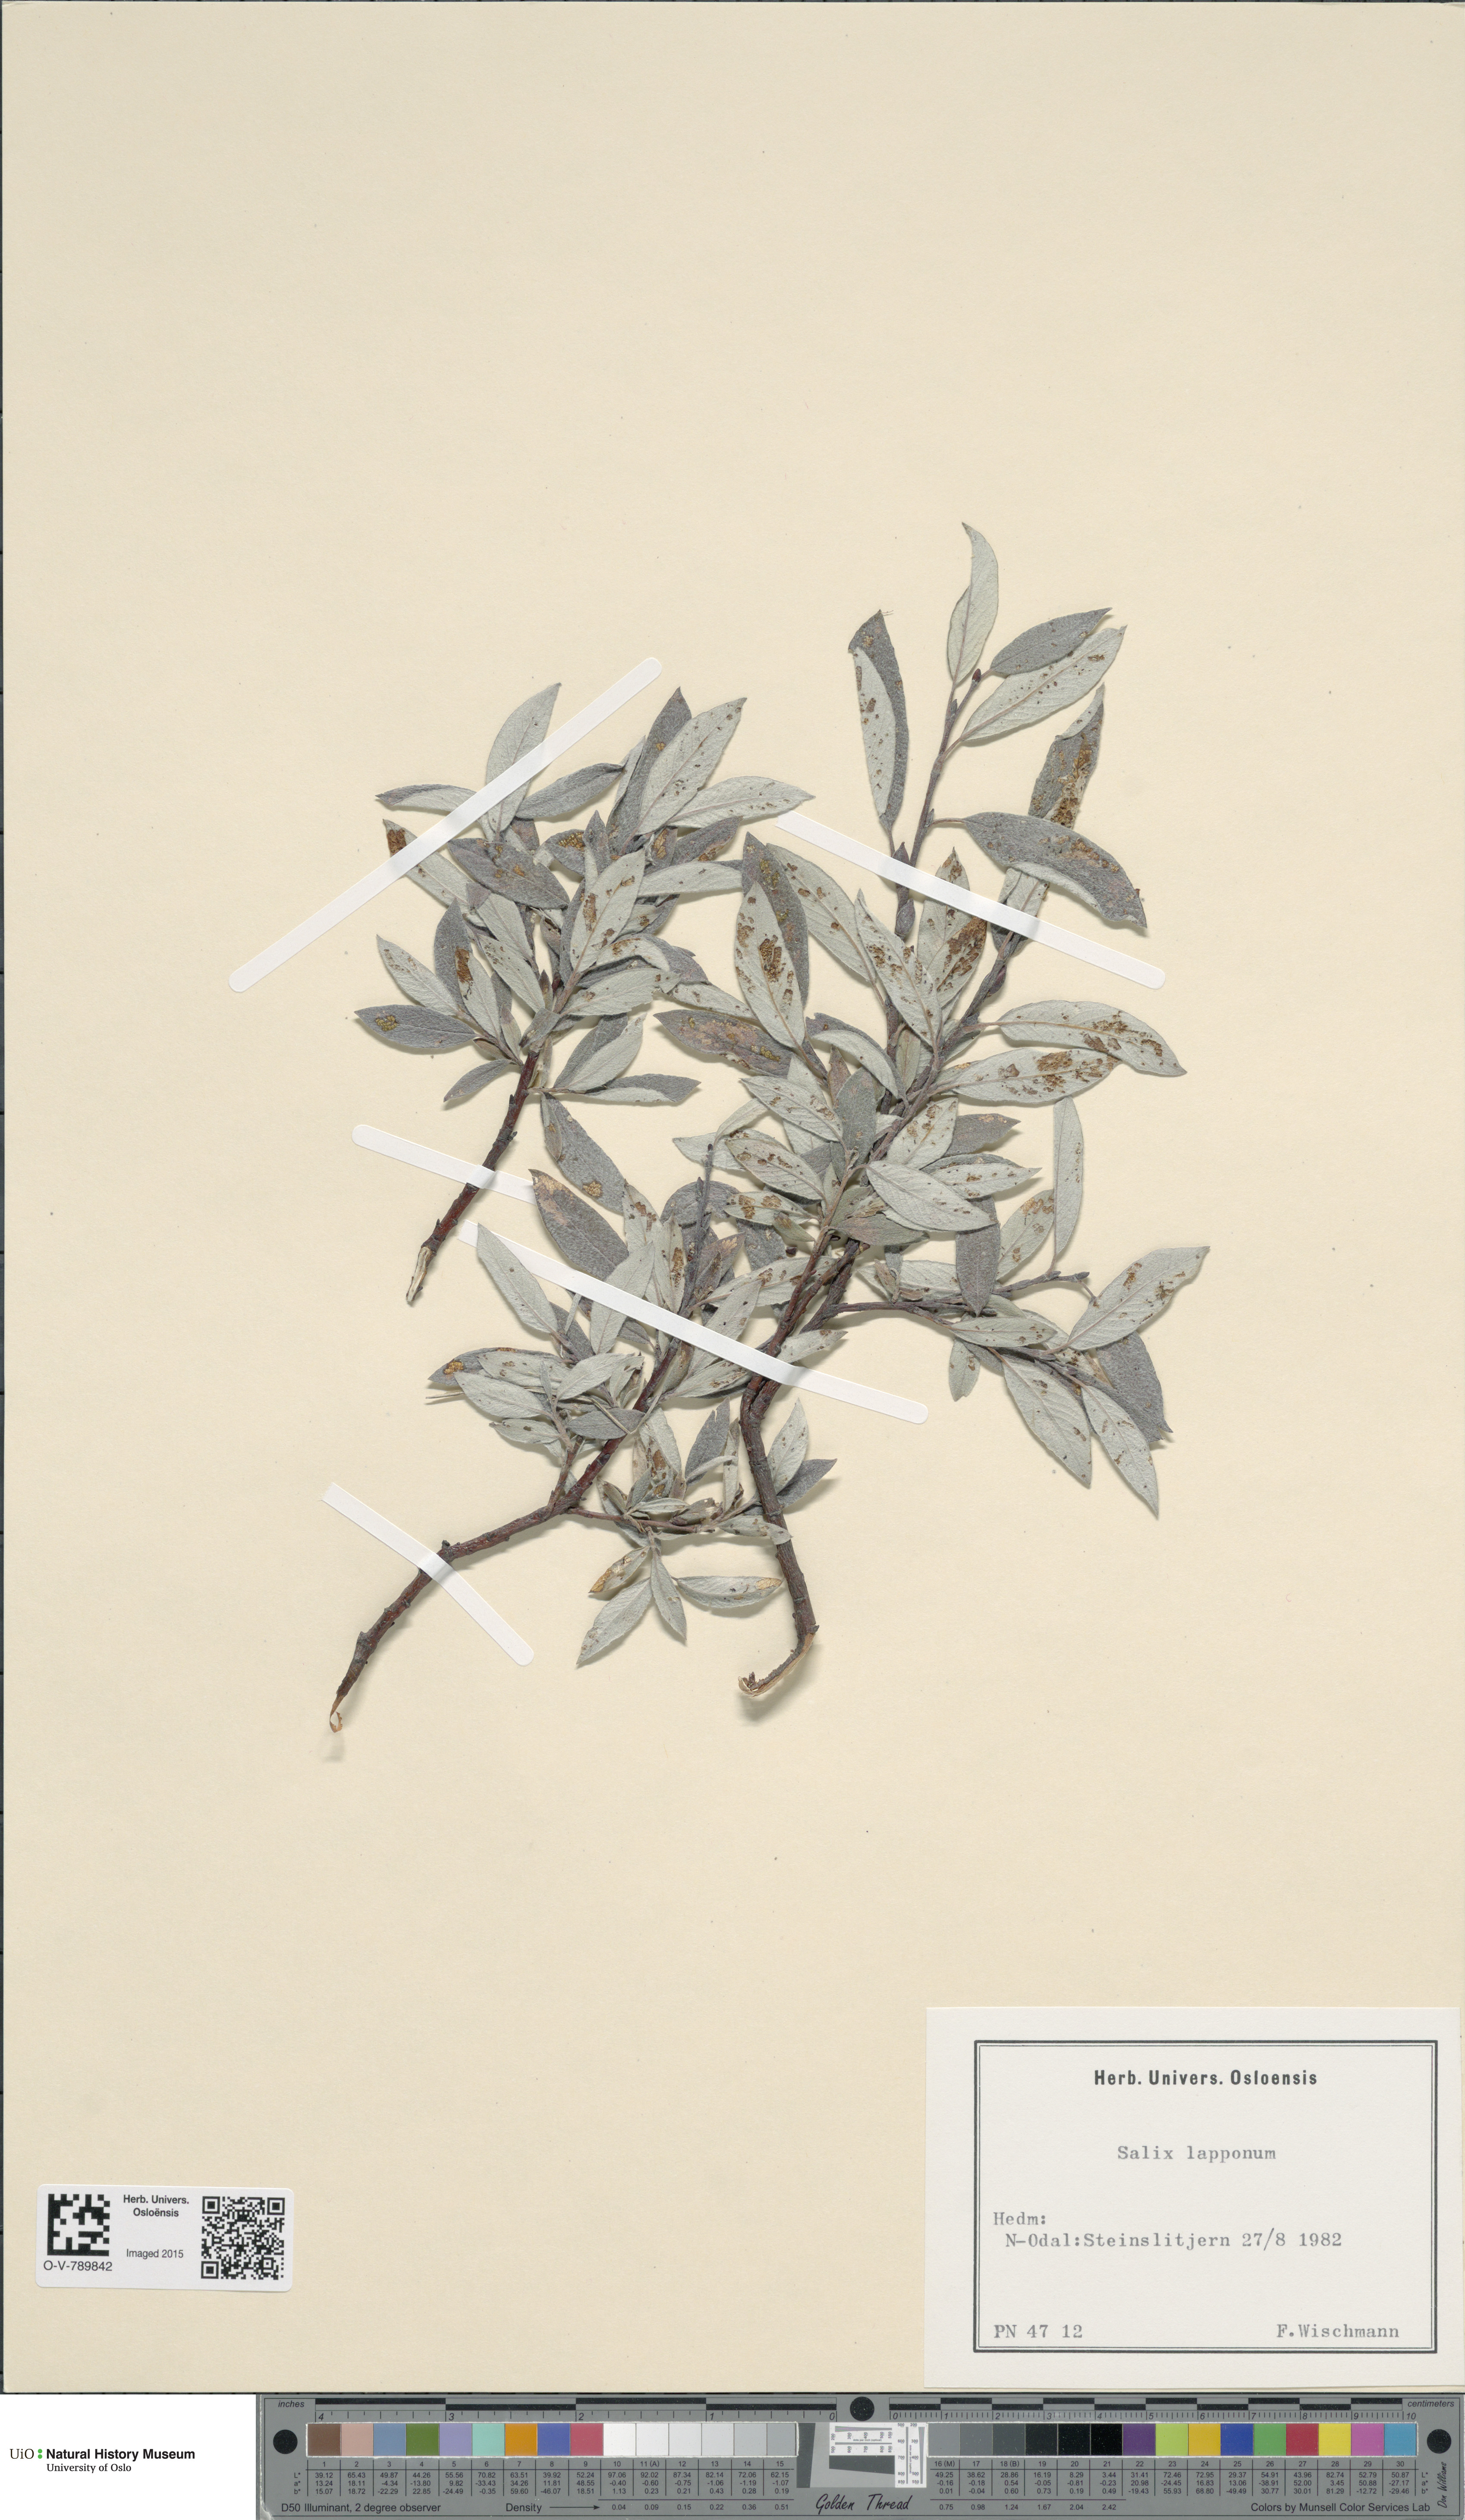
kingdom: Plantae
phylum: Tracheophyta
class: Magnoliopsida
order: Malpighiales
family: Salicaceae
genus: Salix
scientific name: Salix lapponum
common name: Downy willow
